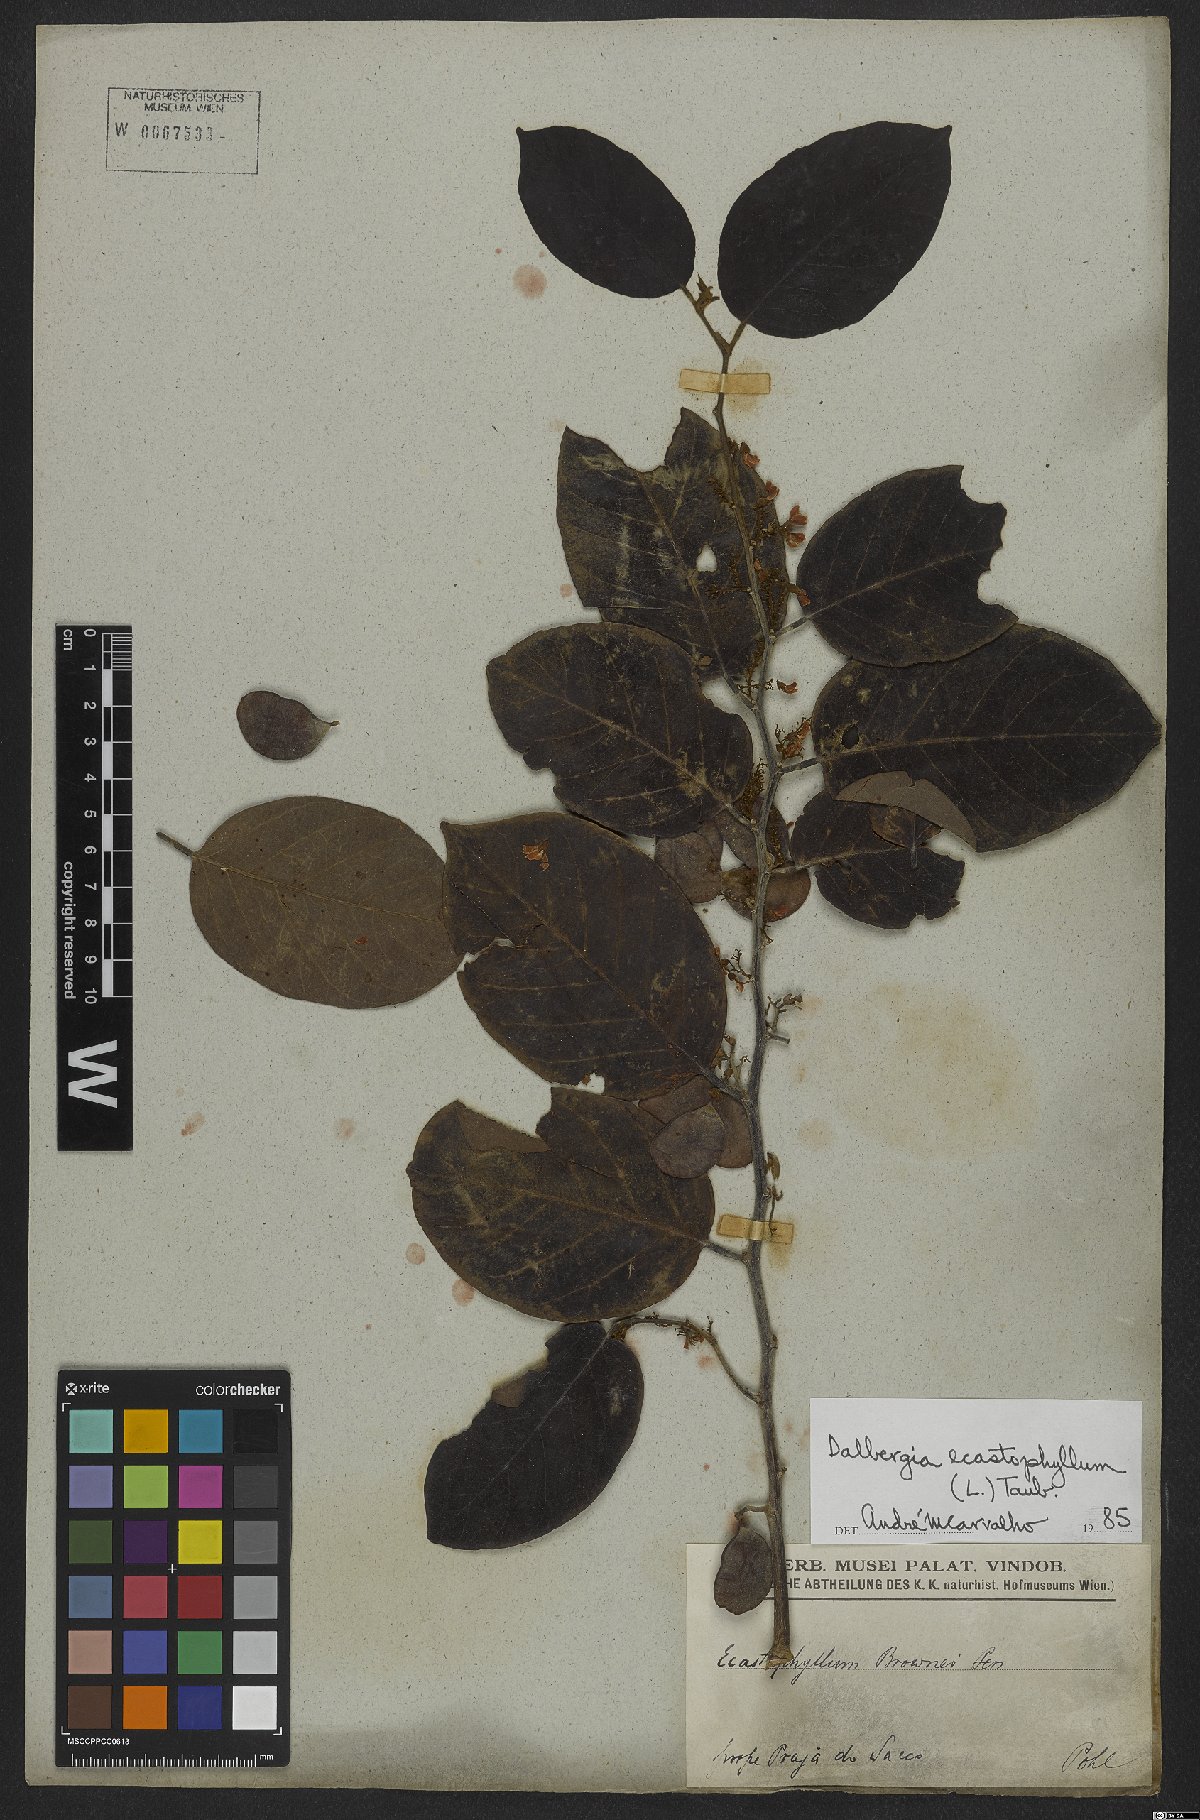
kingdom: Plantae
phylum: Tracheophyta
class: Magnoliopsida
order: Fabales
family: Fabaceae
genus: Dalbergia
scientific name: Dalbergia ecastaphyllum
